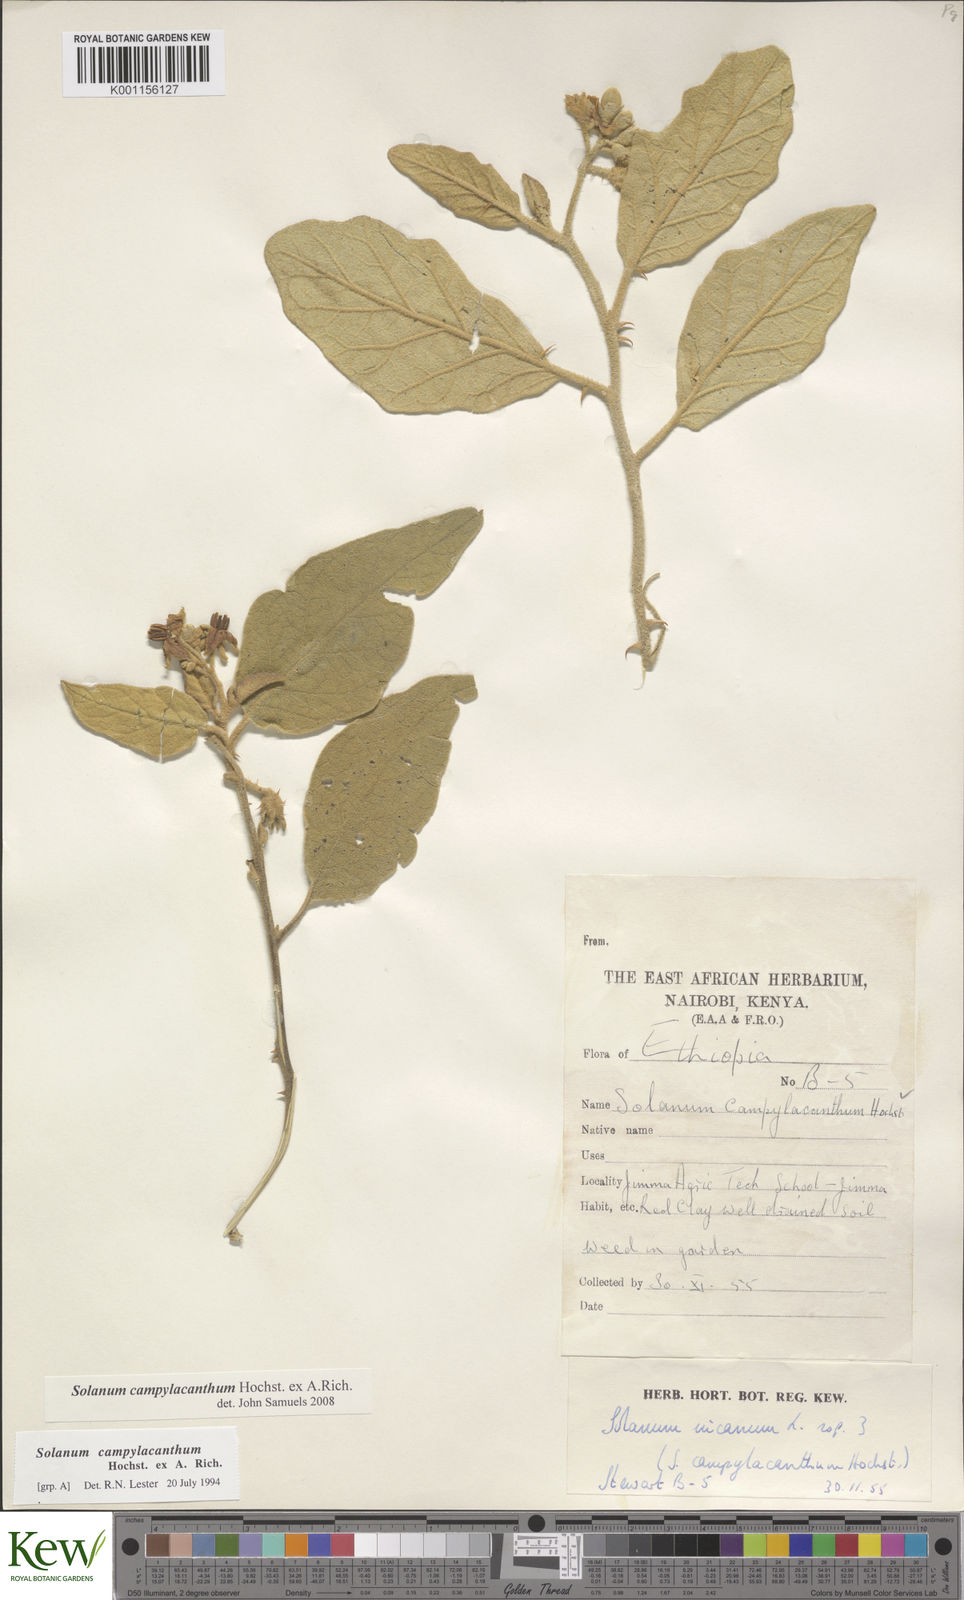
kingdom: Plantae
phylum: Tracheophyta
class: Magnoliopsida
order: Solanales
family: Solanaceae
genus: Solanum
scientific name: Solanum campylacanthum
